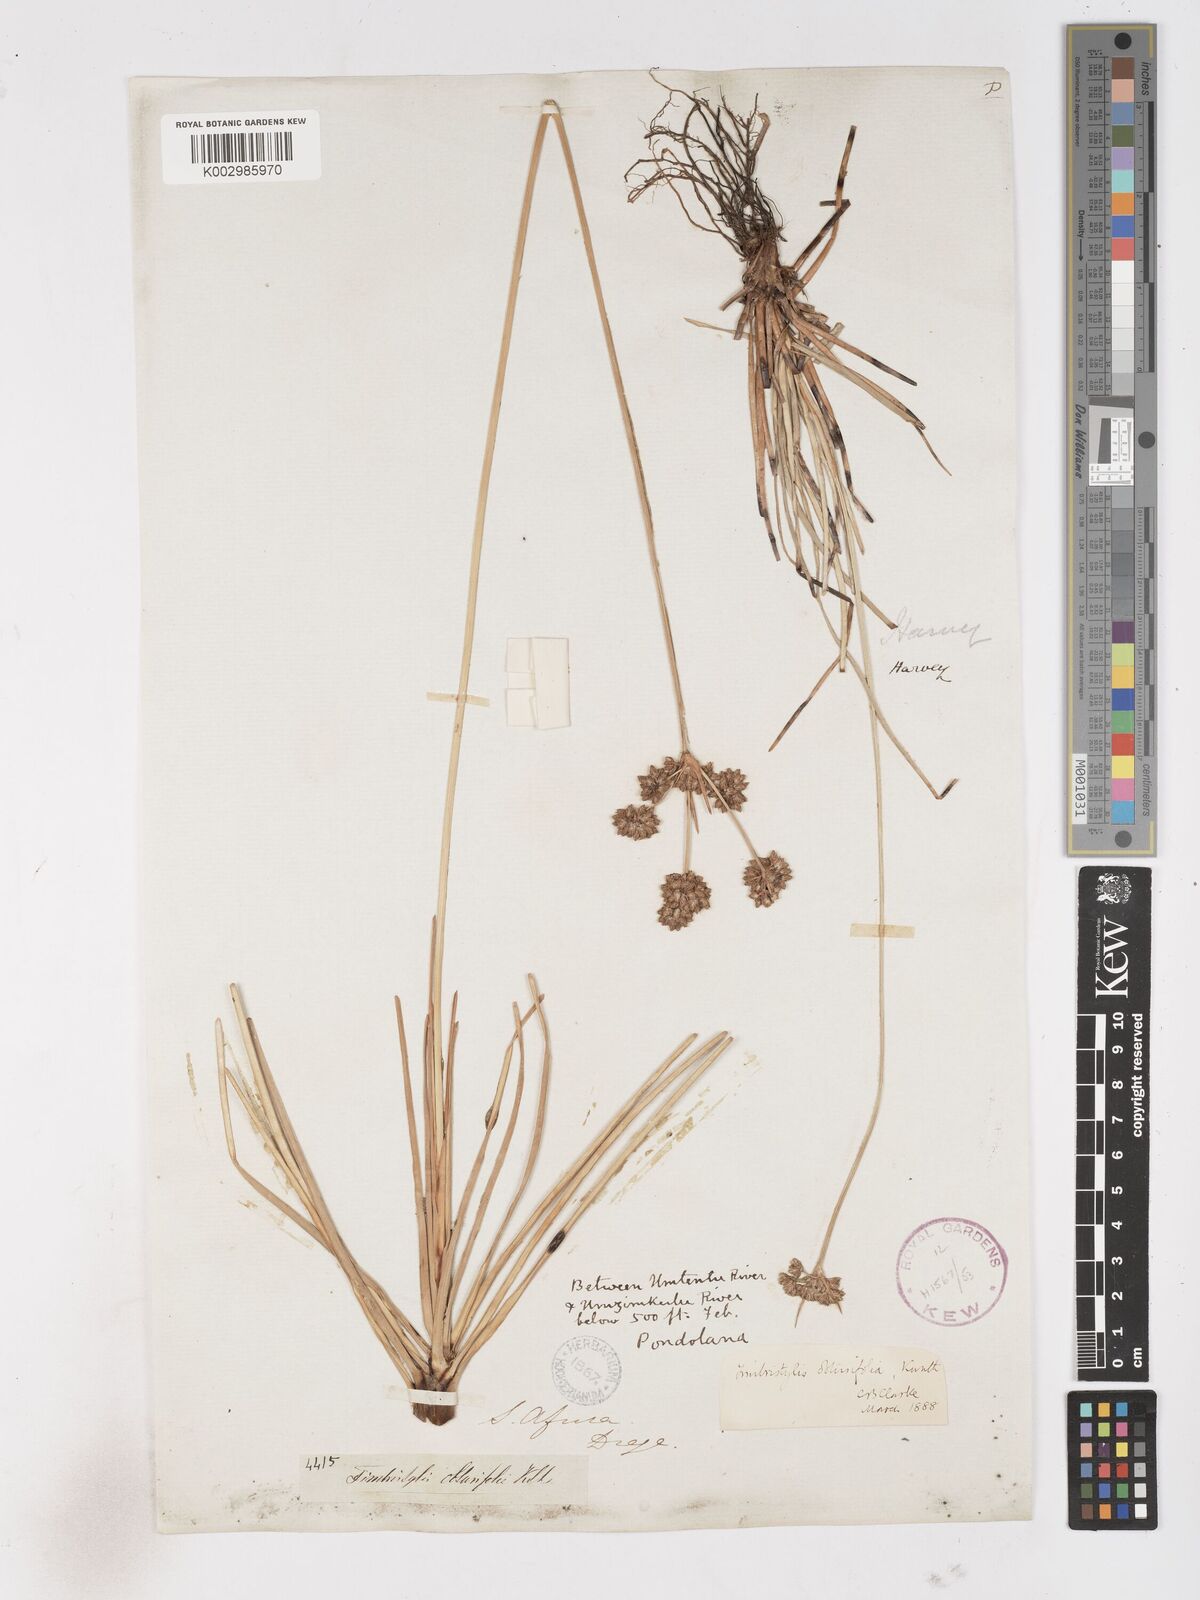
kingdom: Plantae
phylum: Tracheophyta
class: Liliopsida
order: Poales
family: Cyperaceae
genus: Fimbristylis
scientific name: Fimbristylis cymosa
